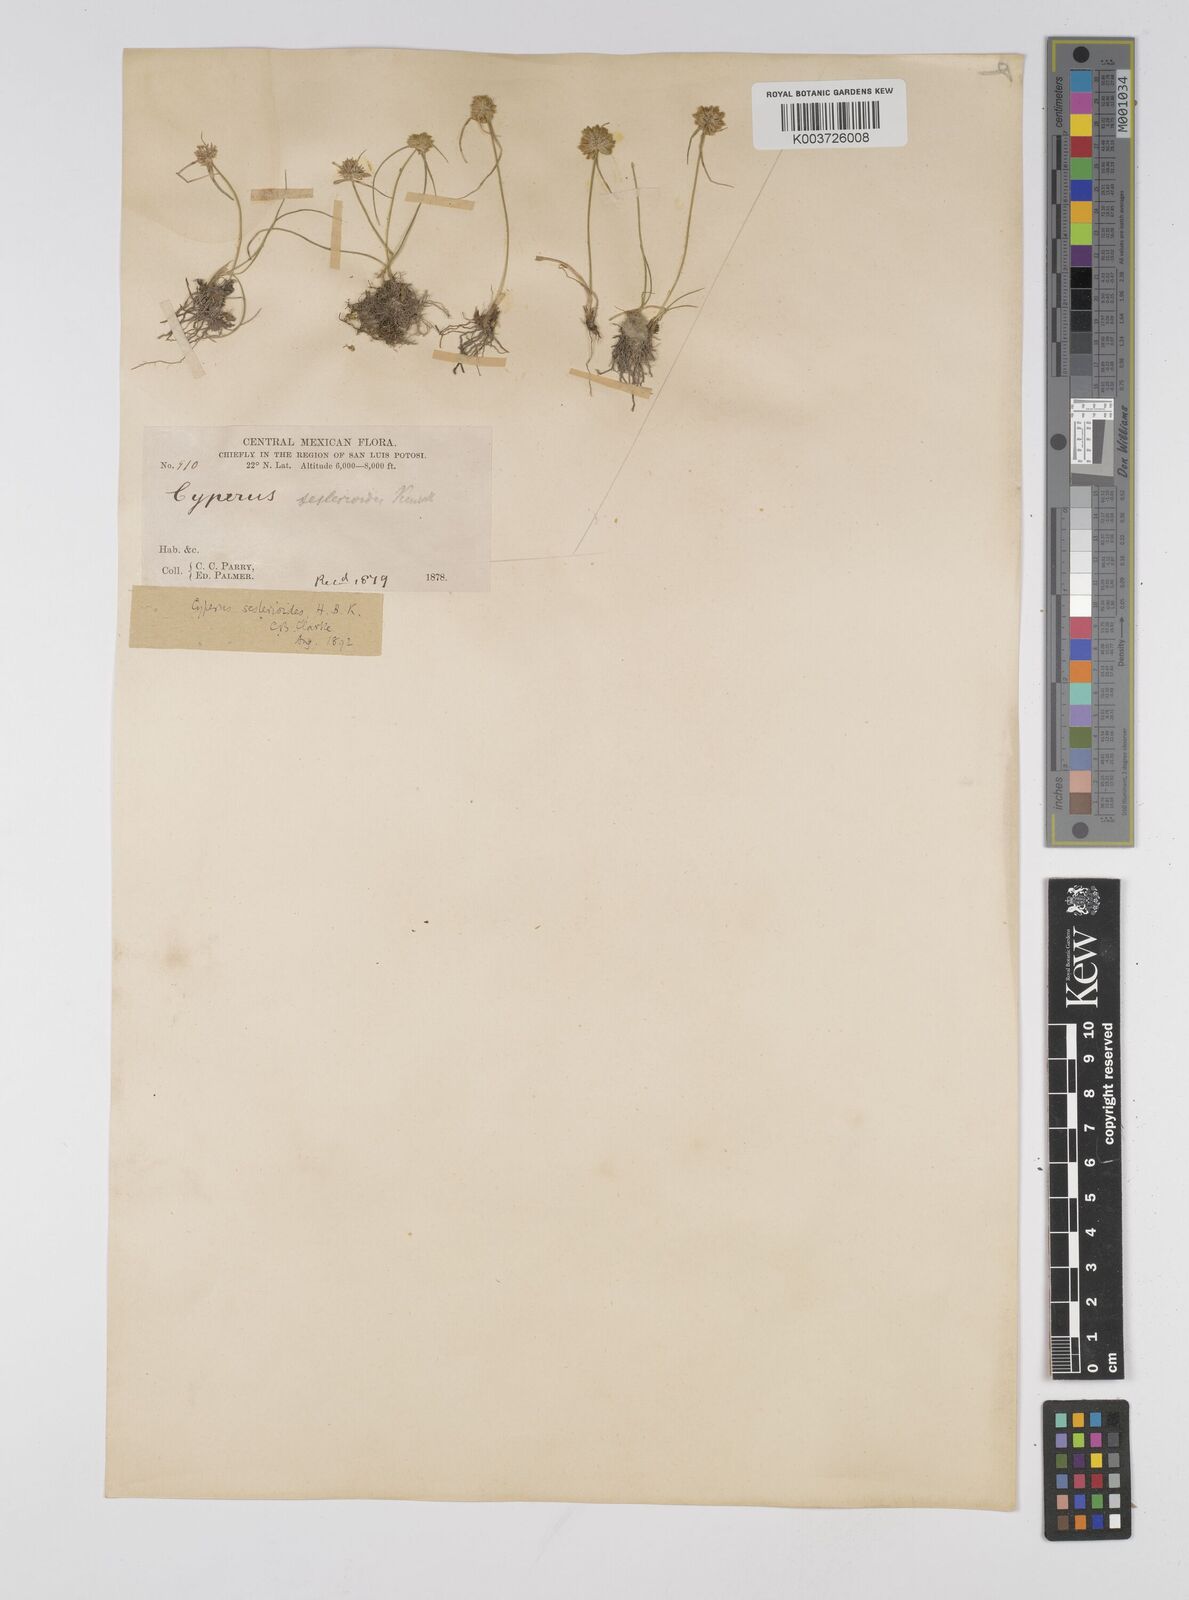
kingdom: Plantae
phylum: Tracheophyta
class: Liliopsida
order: Poales
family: Cyperaceae
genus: Cyperus
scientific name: Cyperus seslerioides
